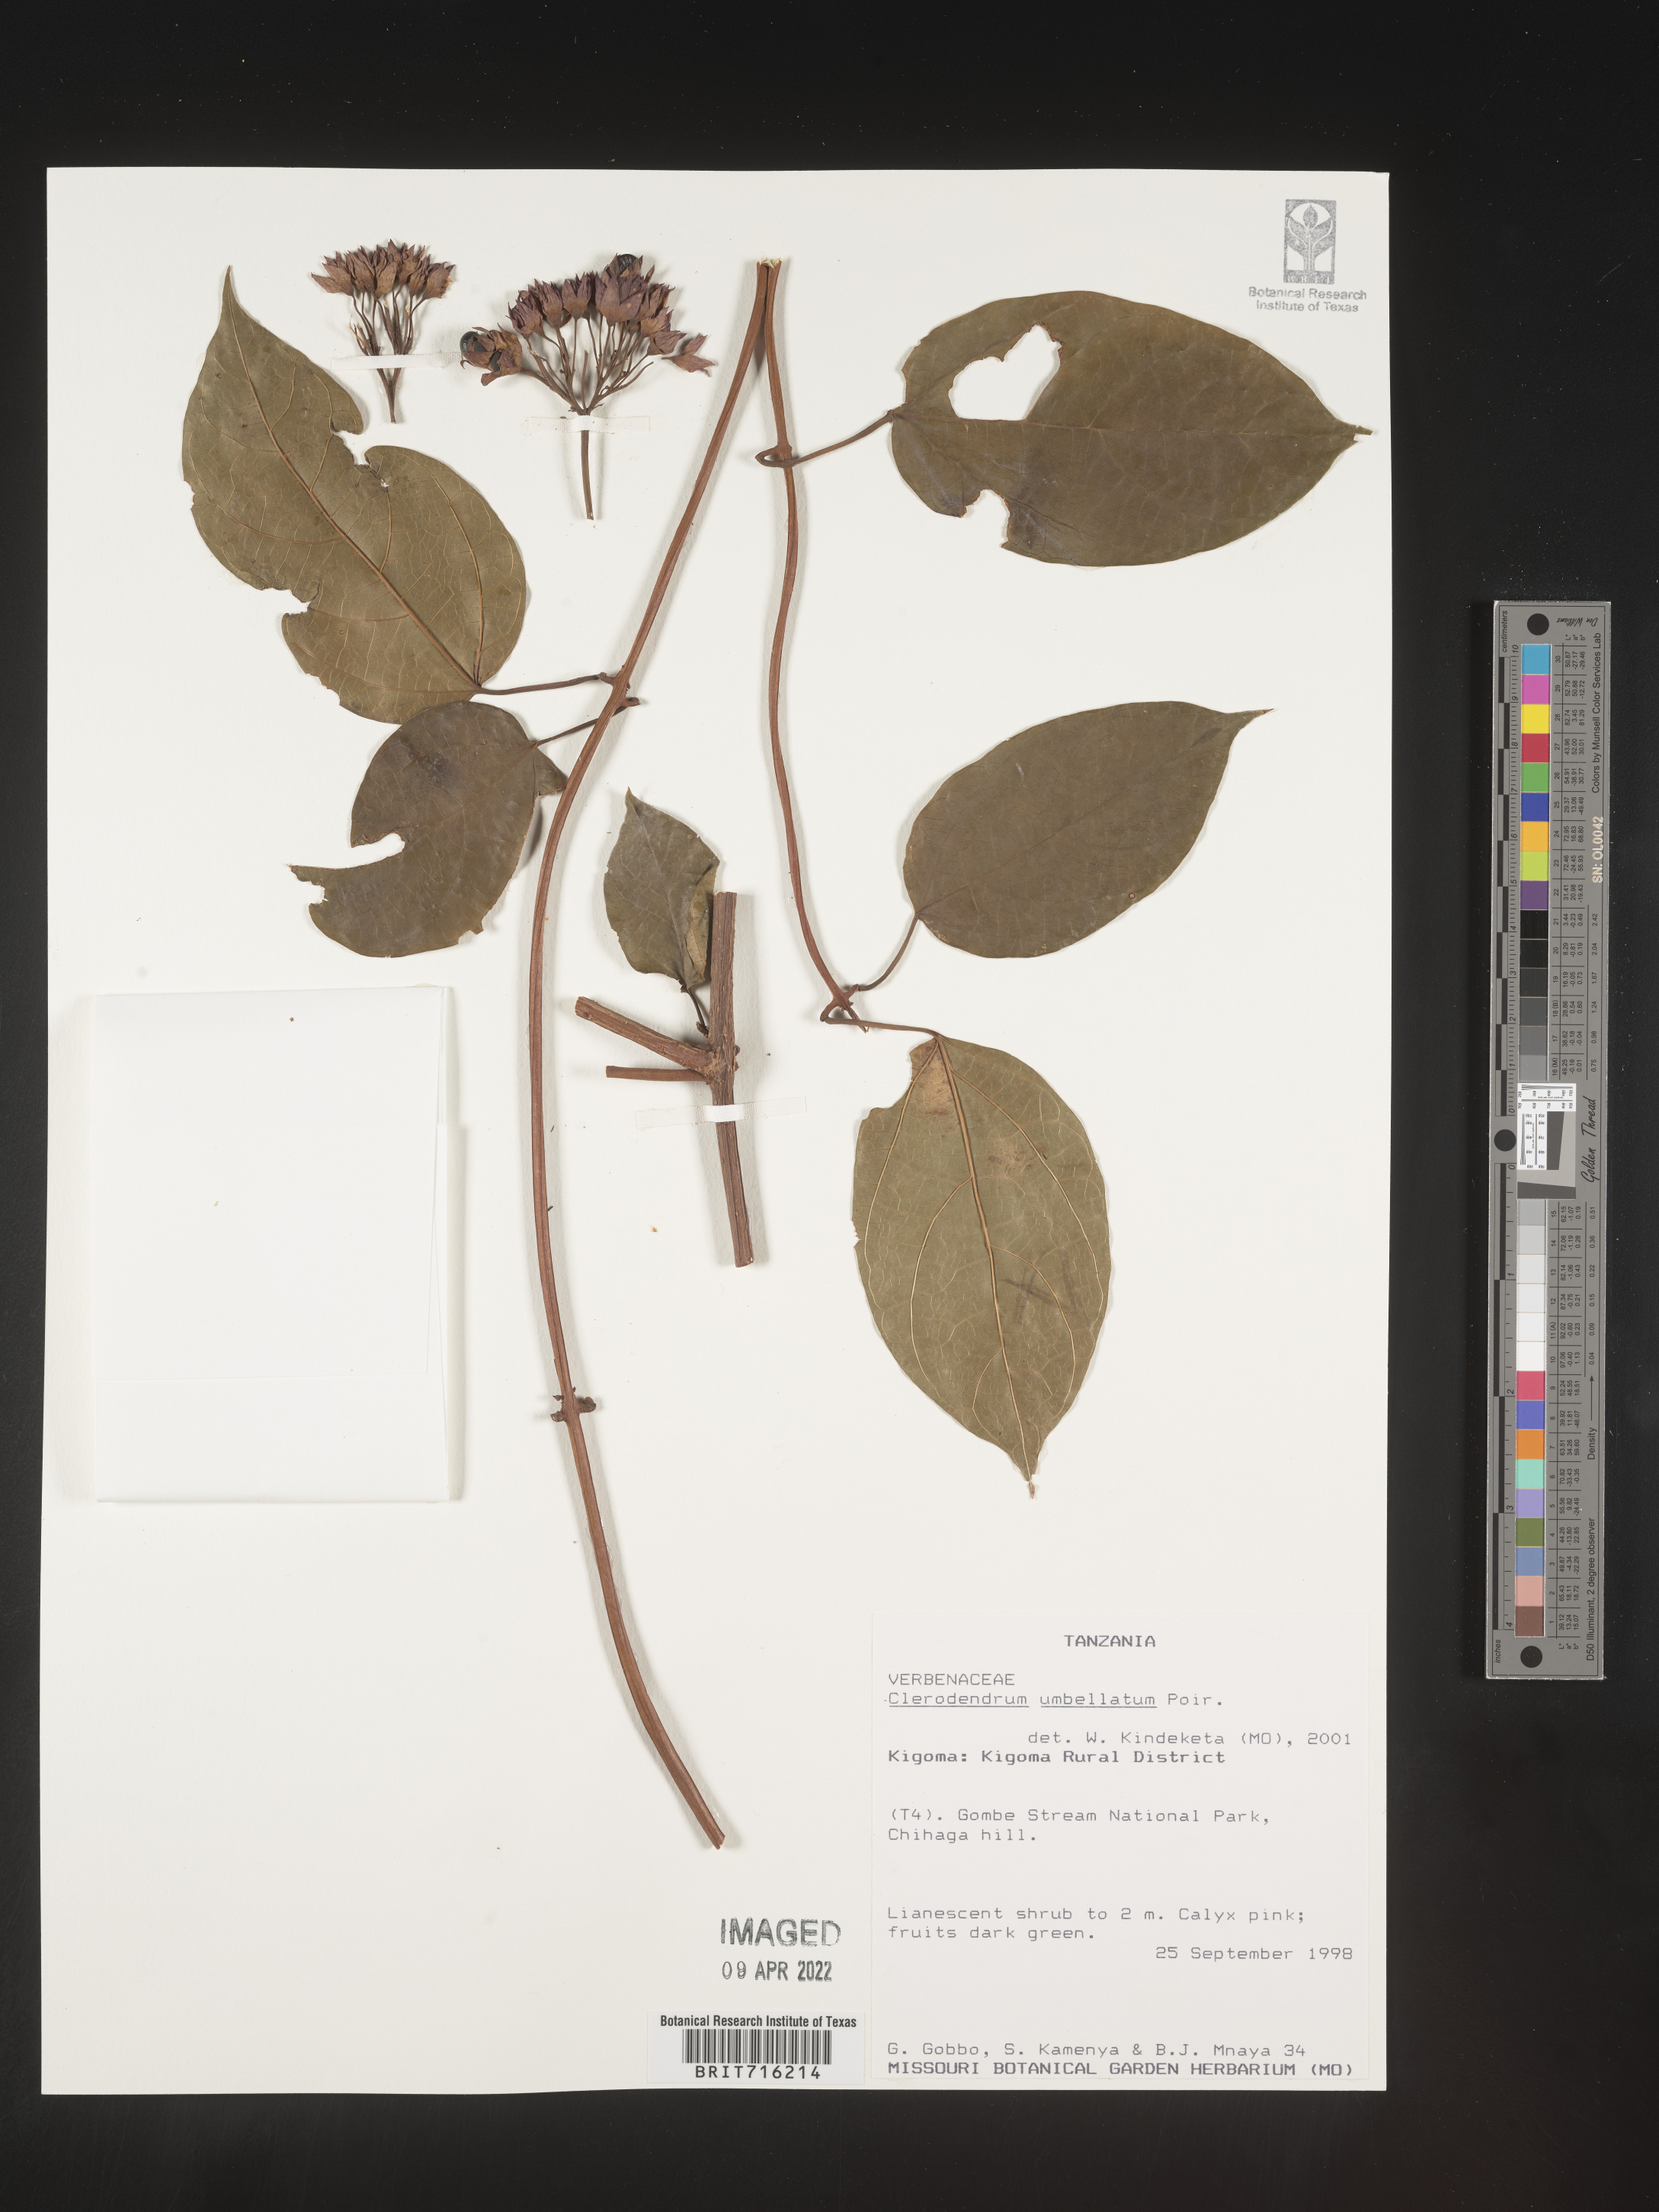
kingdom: Plantae
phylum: Tracheophyta
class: Magnoliopsida
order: Lamiales
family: Lamiaceae
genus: Clerodendrum
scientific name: Clerodendrum
